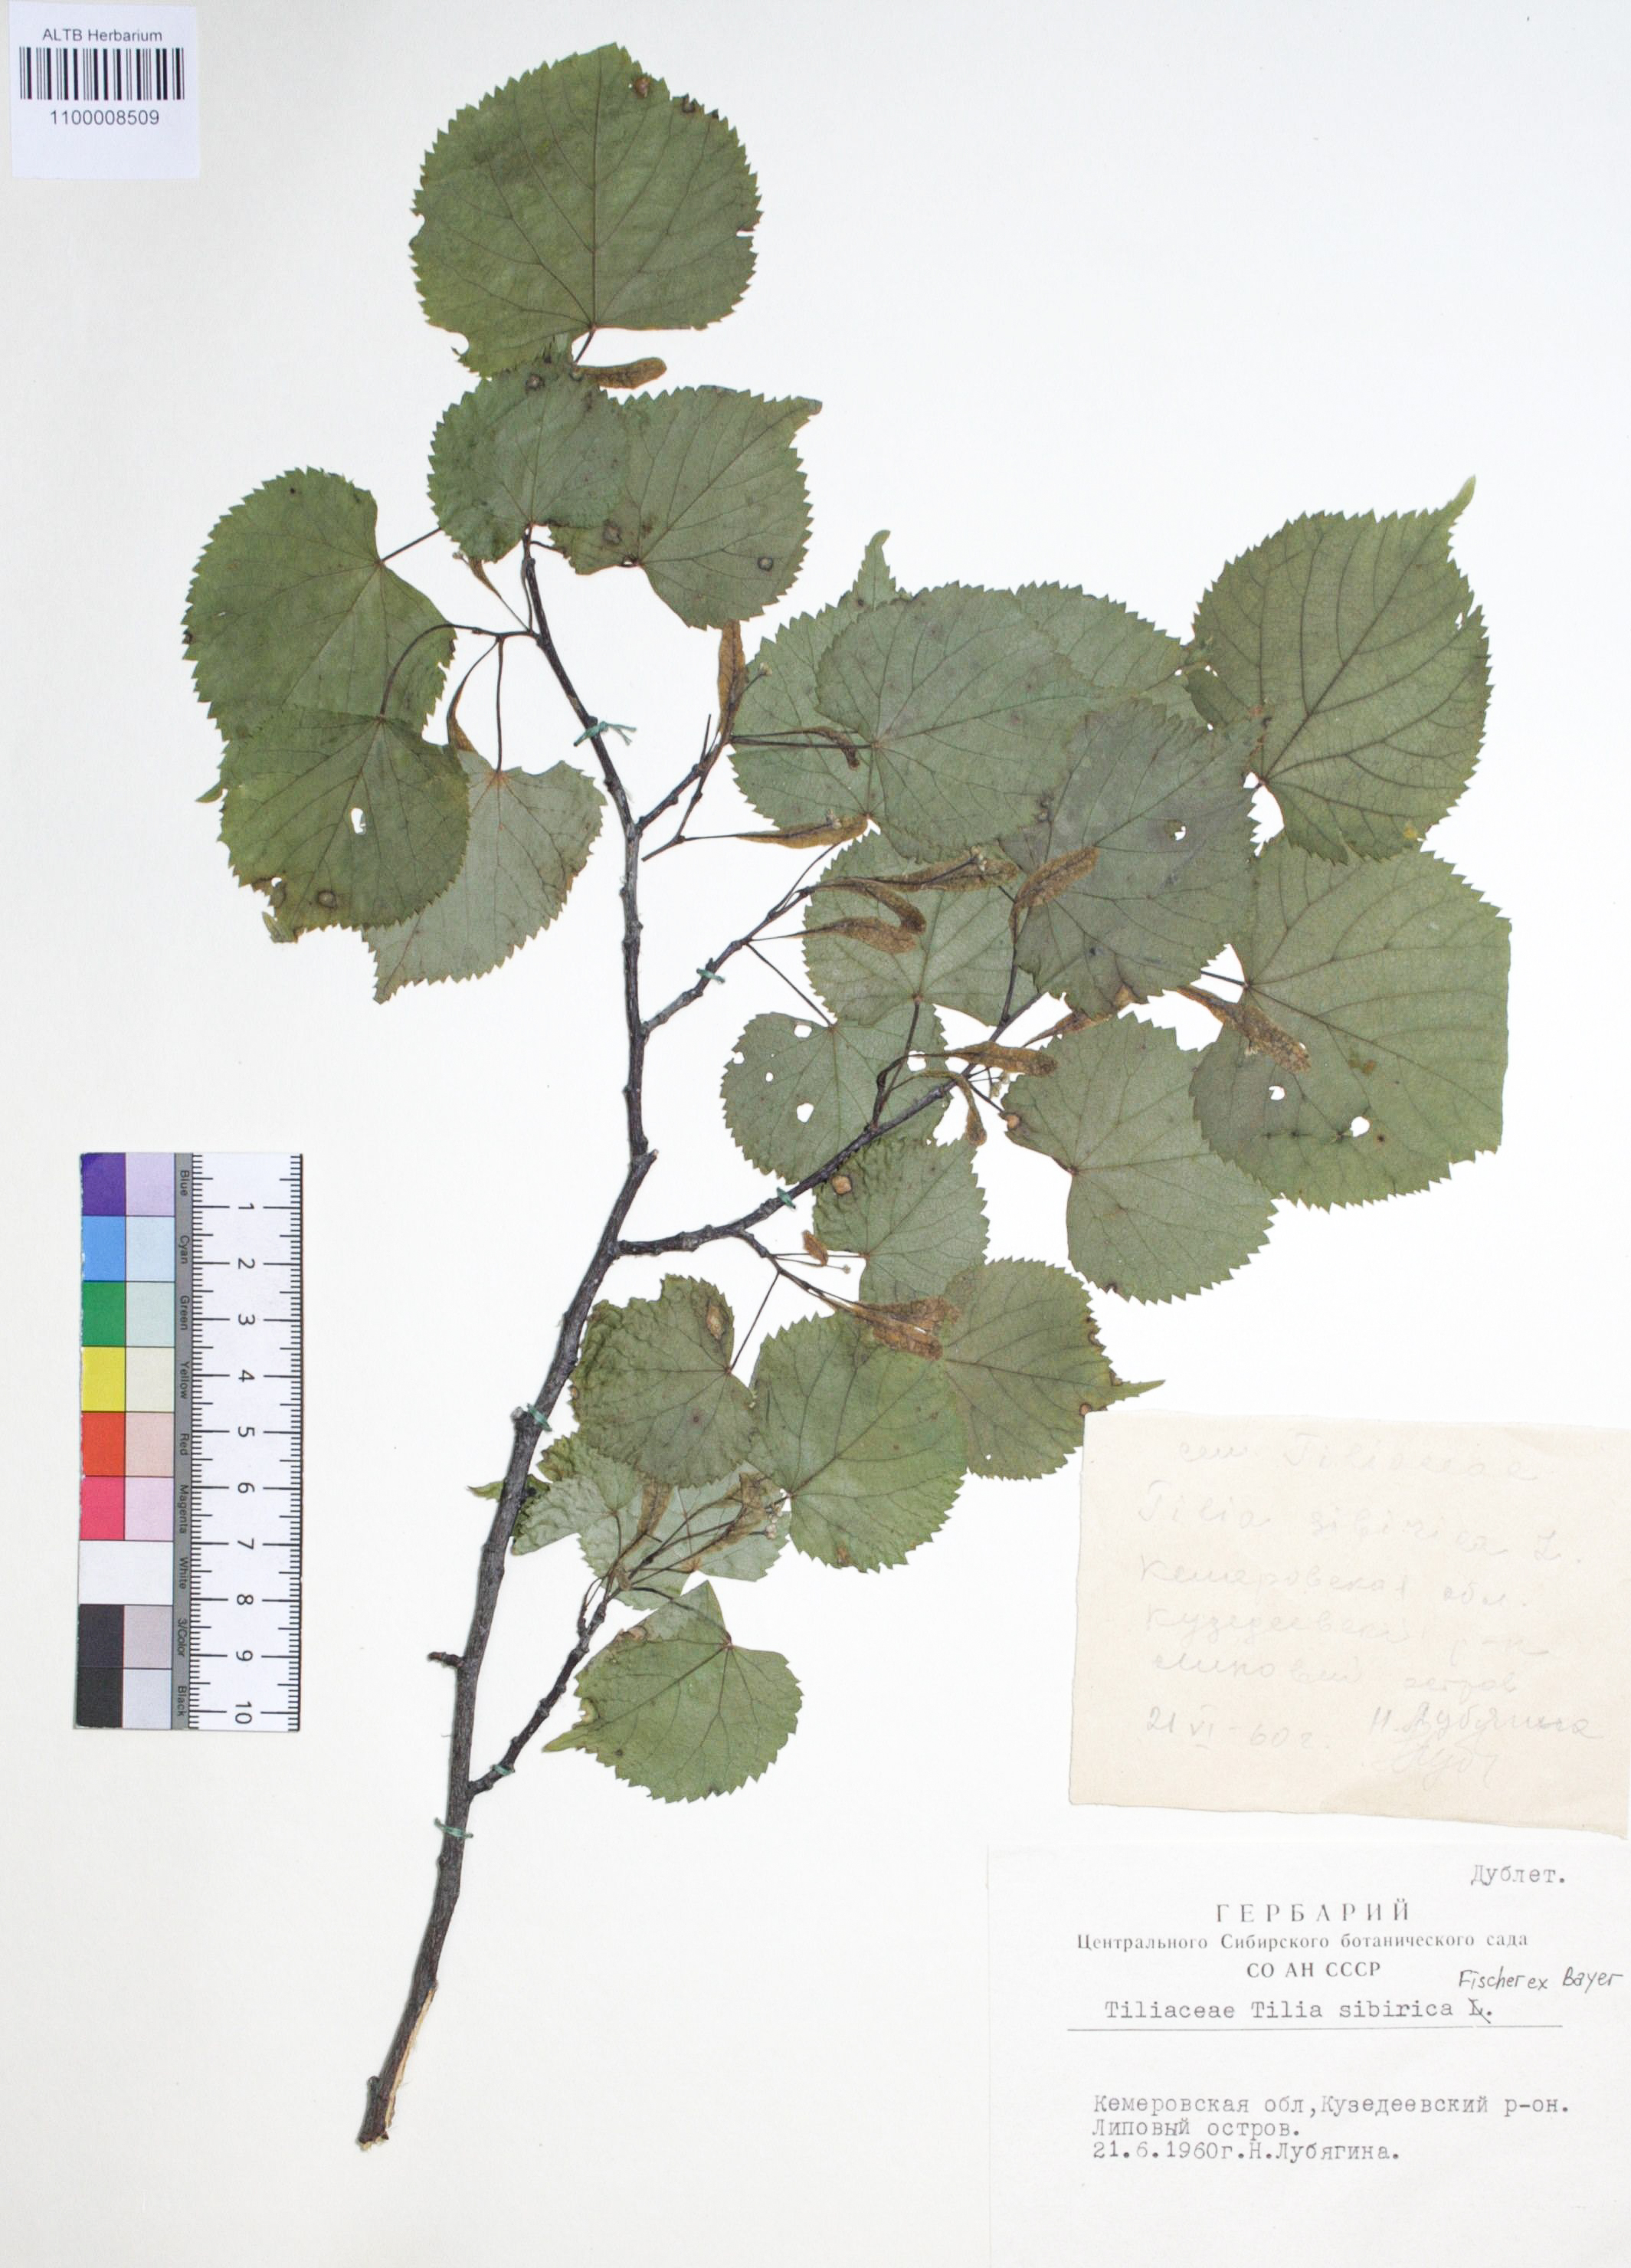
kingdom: Plantae
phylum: Tracheophyta
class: Magnoliopsida
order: Malvales
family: Malvaceae
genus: Tilia
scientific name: Tilia cordata
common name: Small-leaved lime
